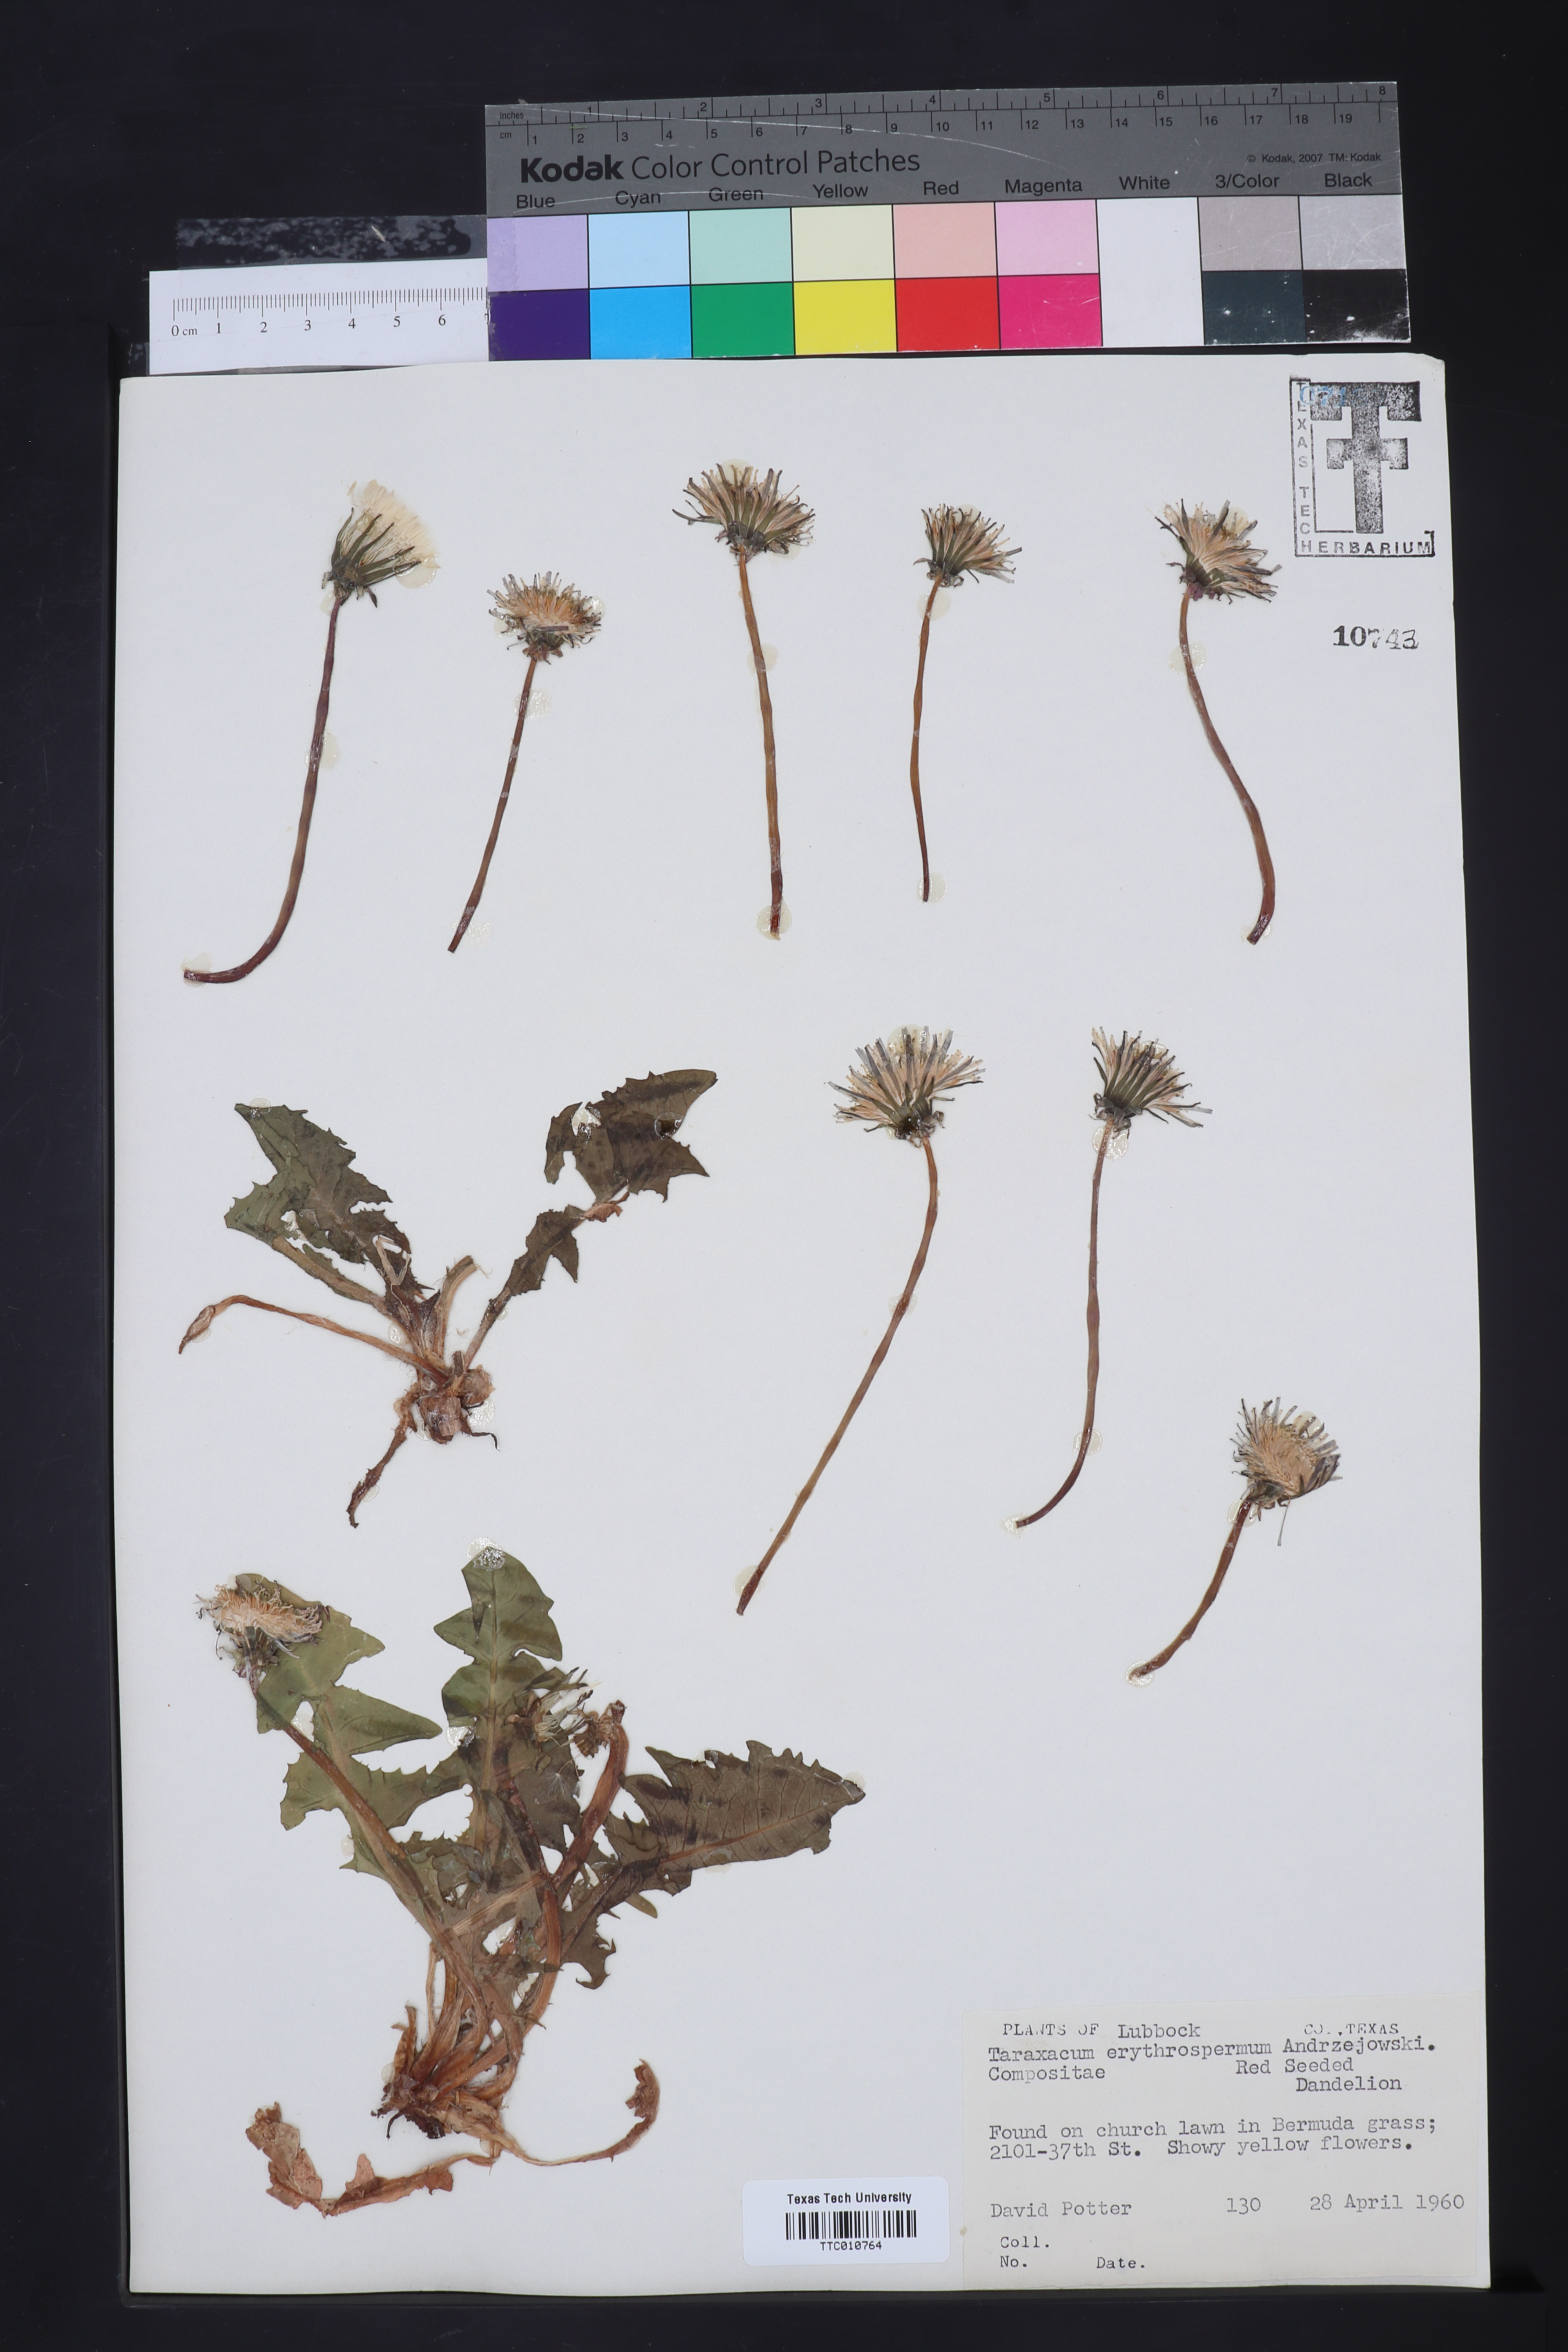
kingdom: Plantae
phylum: Tracheophyta
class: Magnoliopsida
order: Asterales
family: Asteraceae
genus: Taraxacum
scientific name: Taraxacum erythrospermum
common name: Rock dandelion
